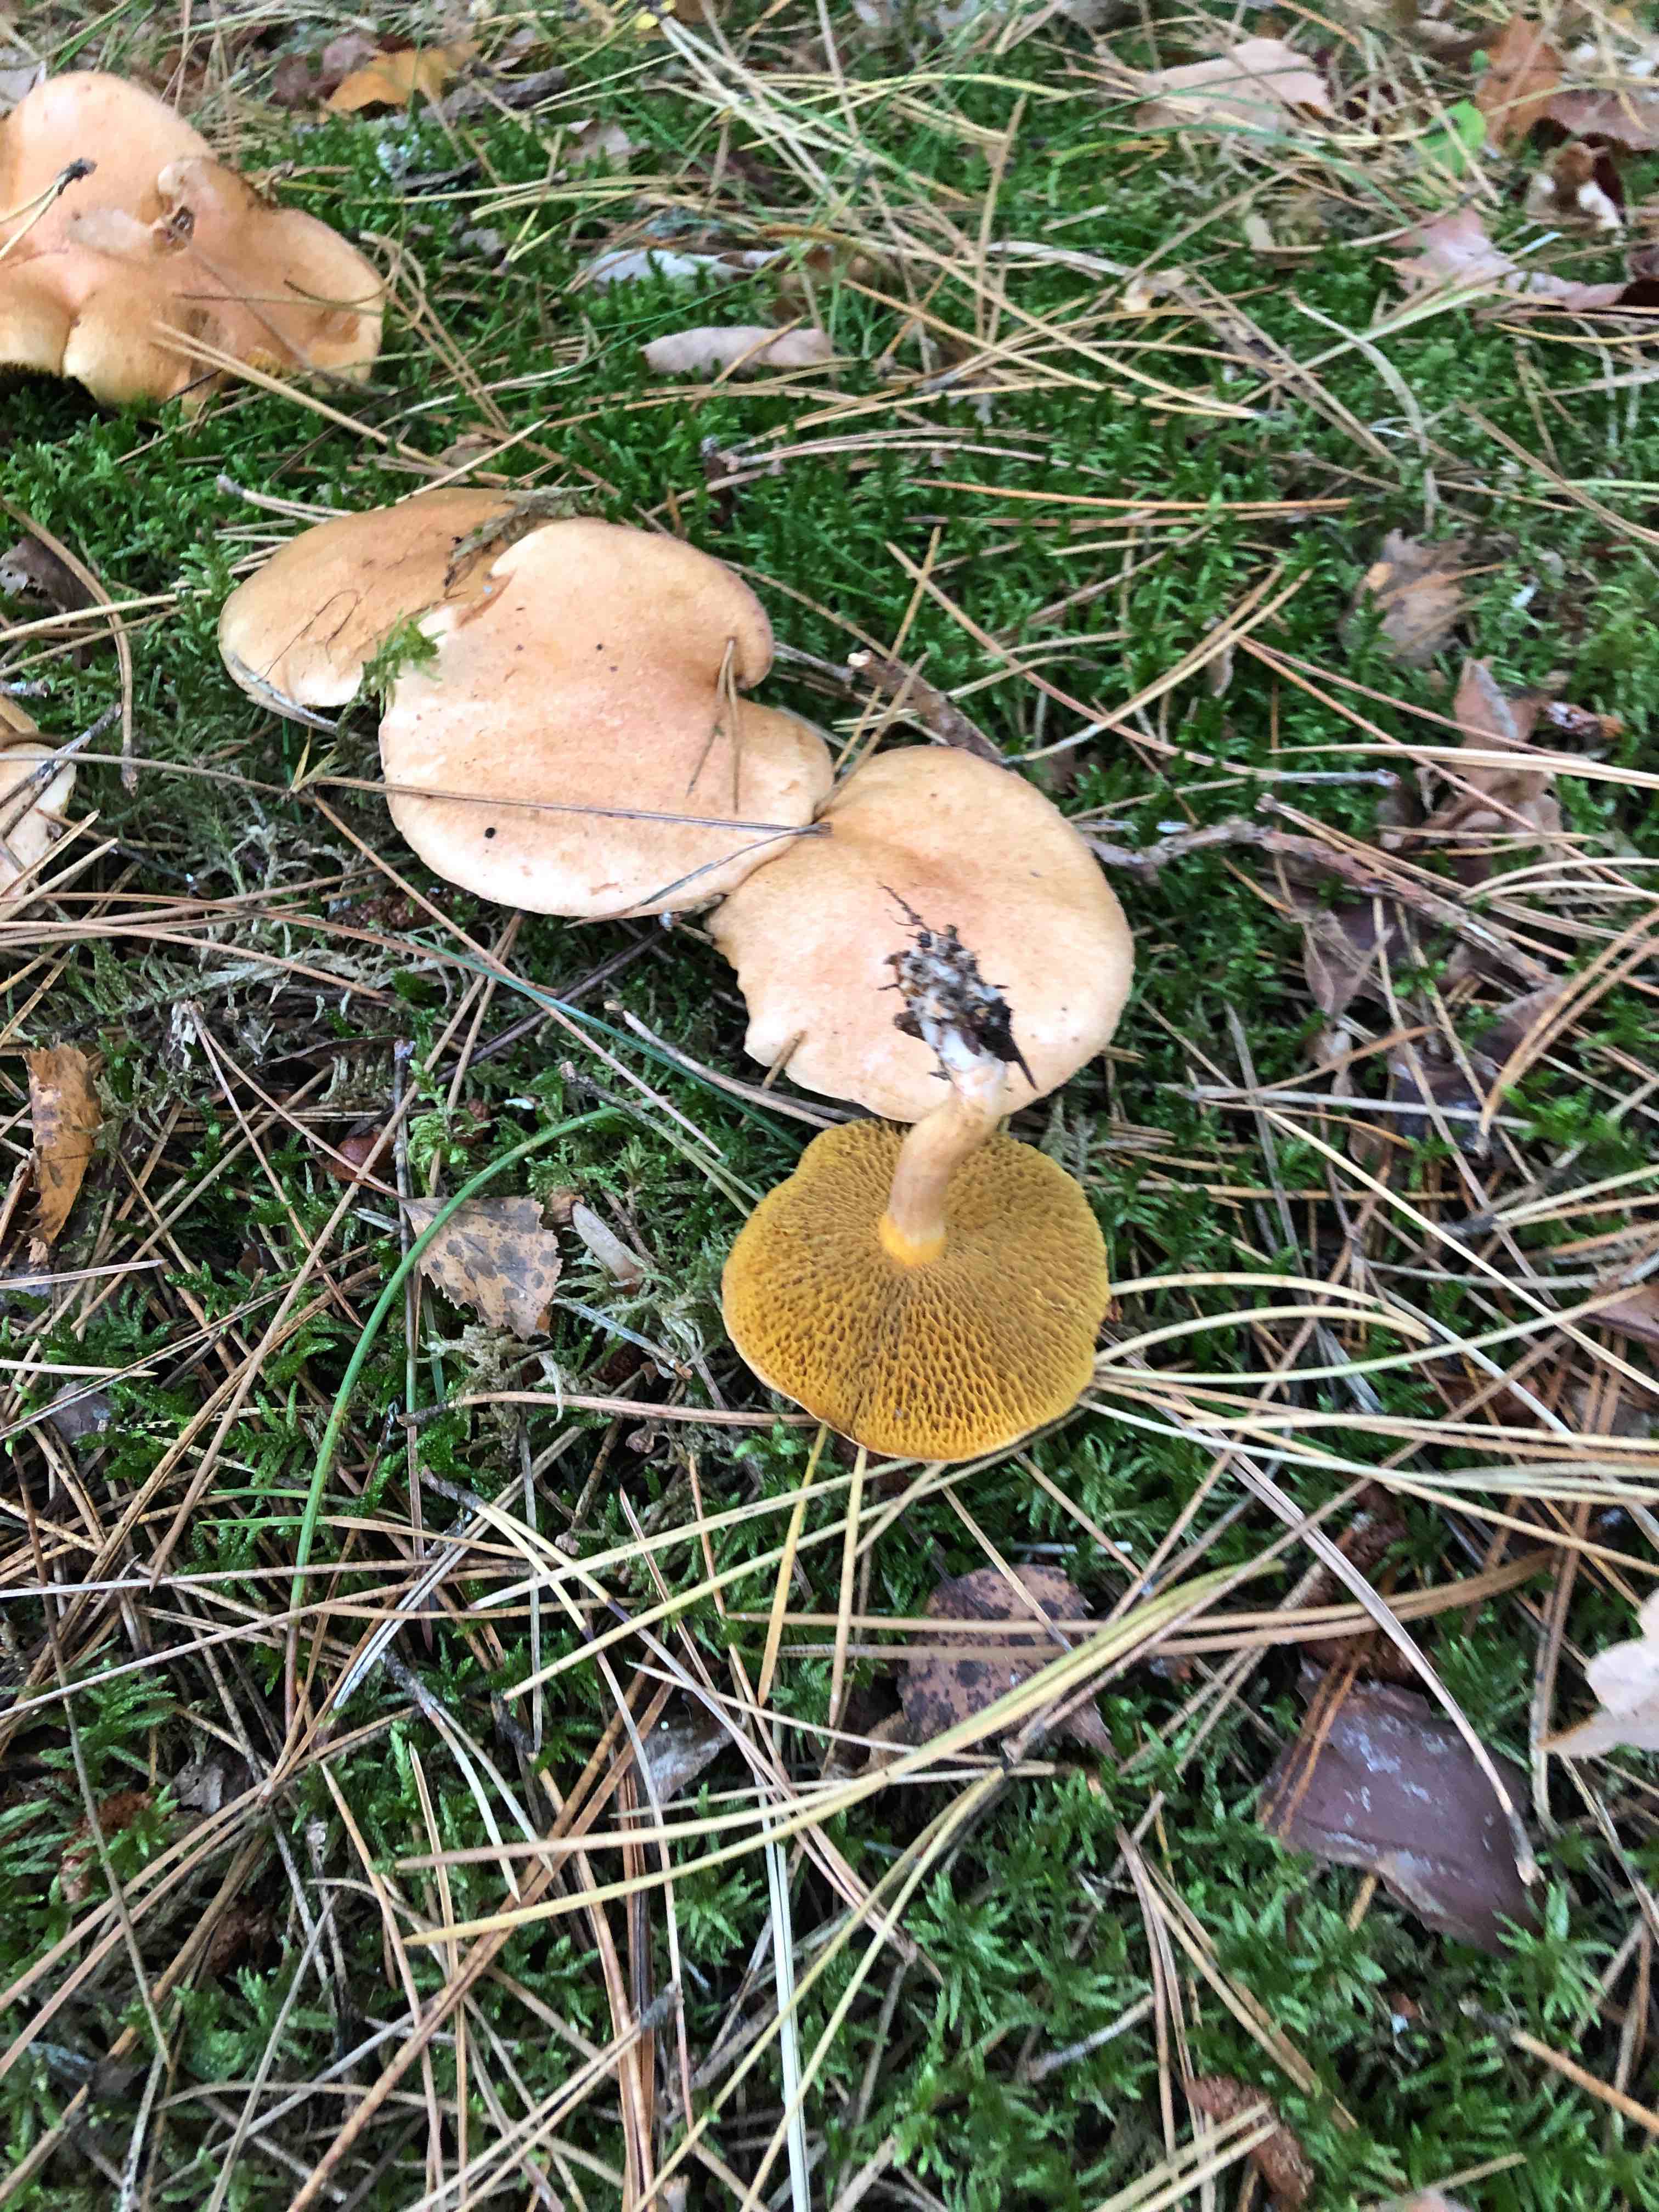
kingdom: Fungi
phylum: Basidiomycota
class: Agaricomycetes
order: Boletales
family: Suillaceae
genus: Suillus
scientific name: Suillus bovinus
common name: grovporet slimrørhat
